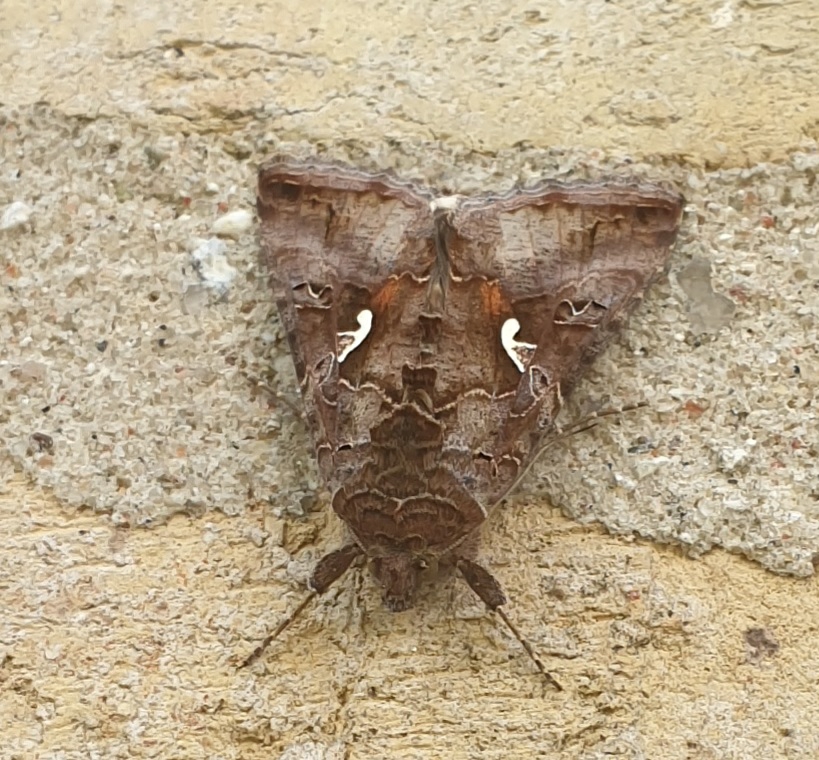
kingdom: Animalia
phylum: Arthropoda
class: Insecta
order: Lepidoptera
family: Noctuidae
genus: Autographa
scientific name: Autographa gamma
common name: Gammaugle
